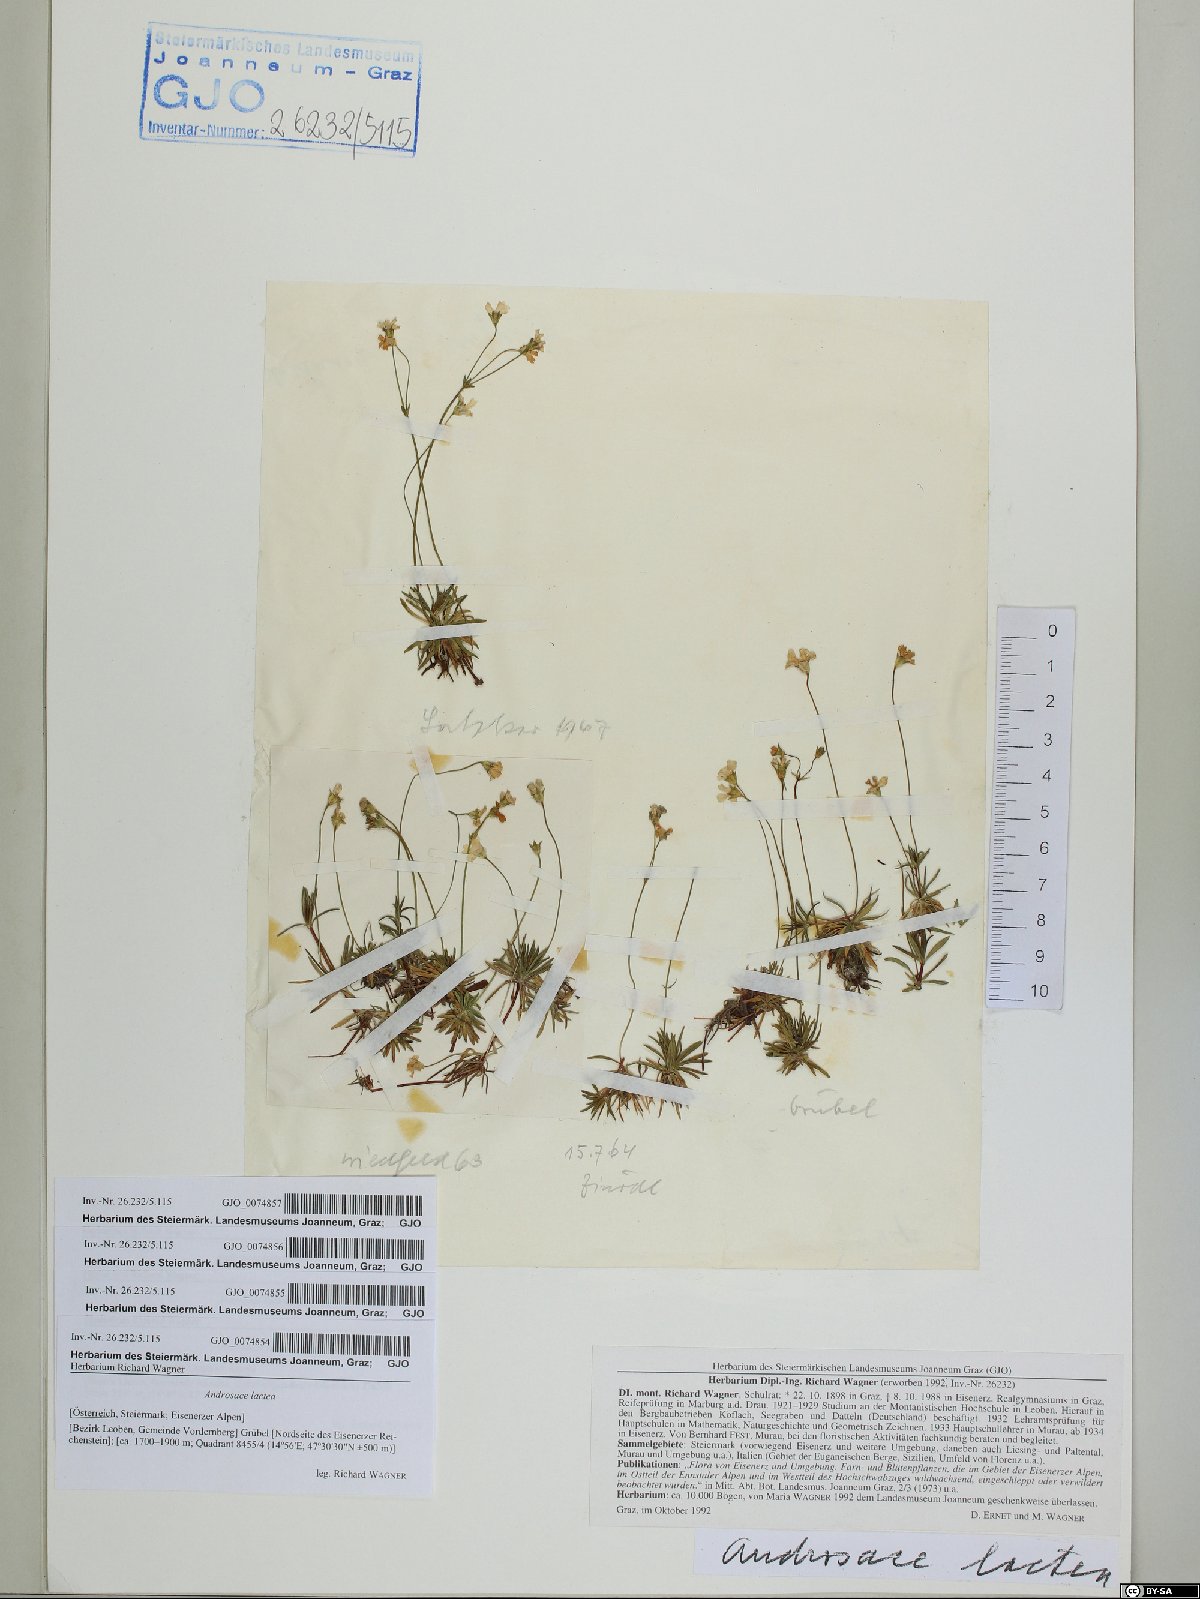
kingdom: Plantae
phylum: Tracheophyta
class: Magnoliopsida
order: Ericales
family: Primulaceae
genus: Androsace
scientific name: Androsace lactea
